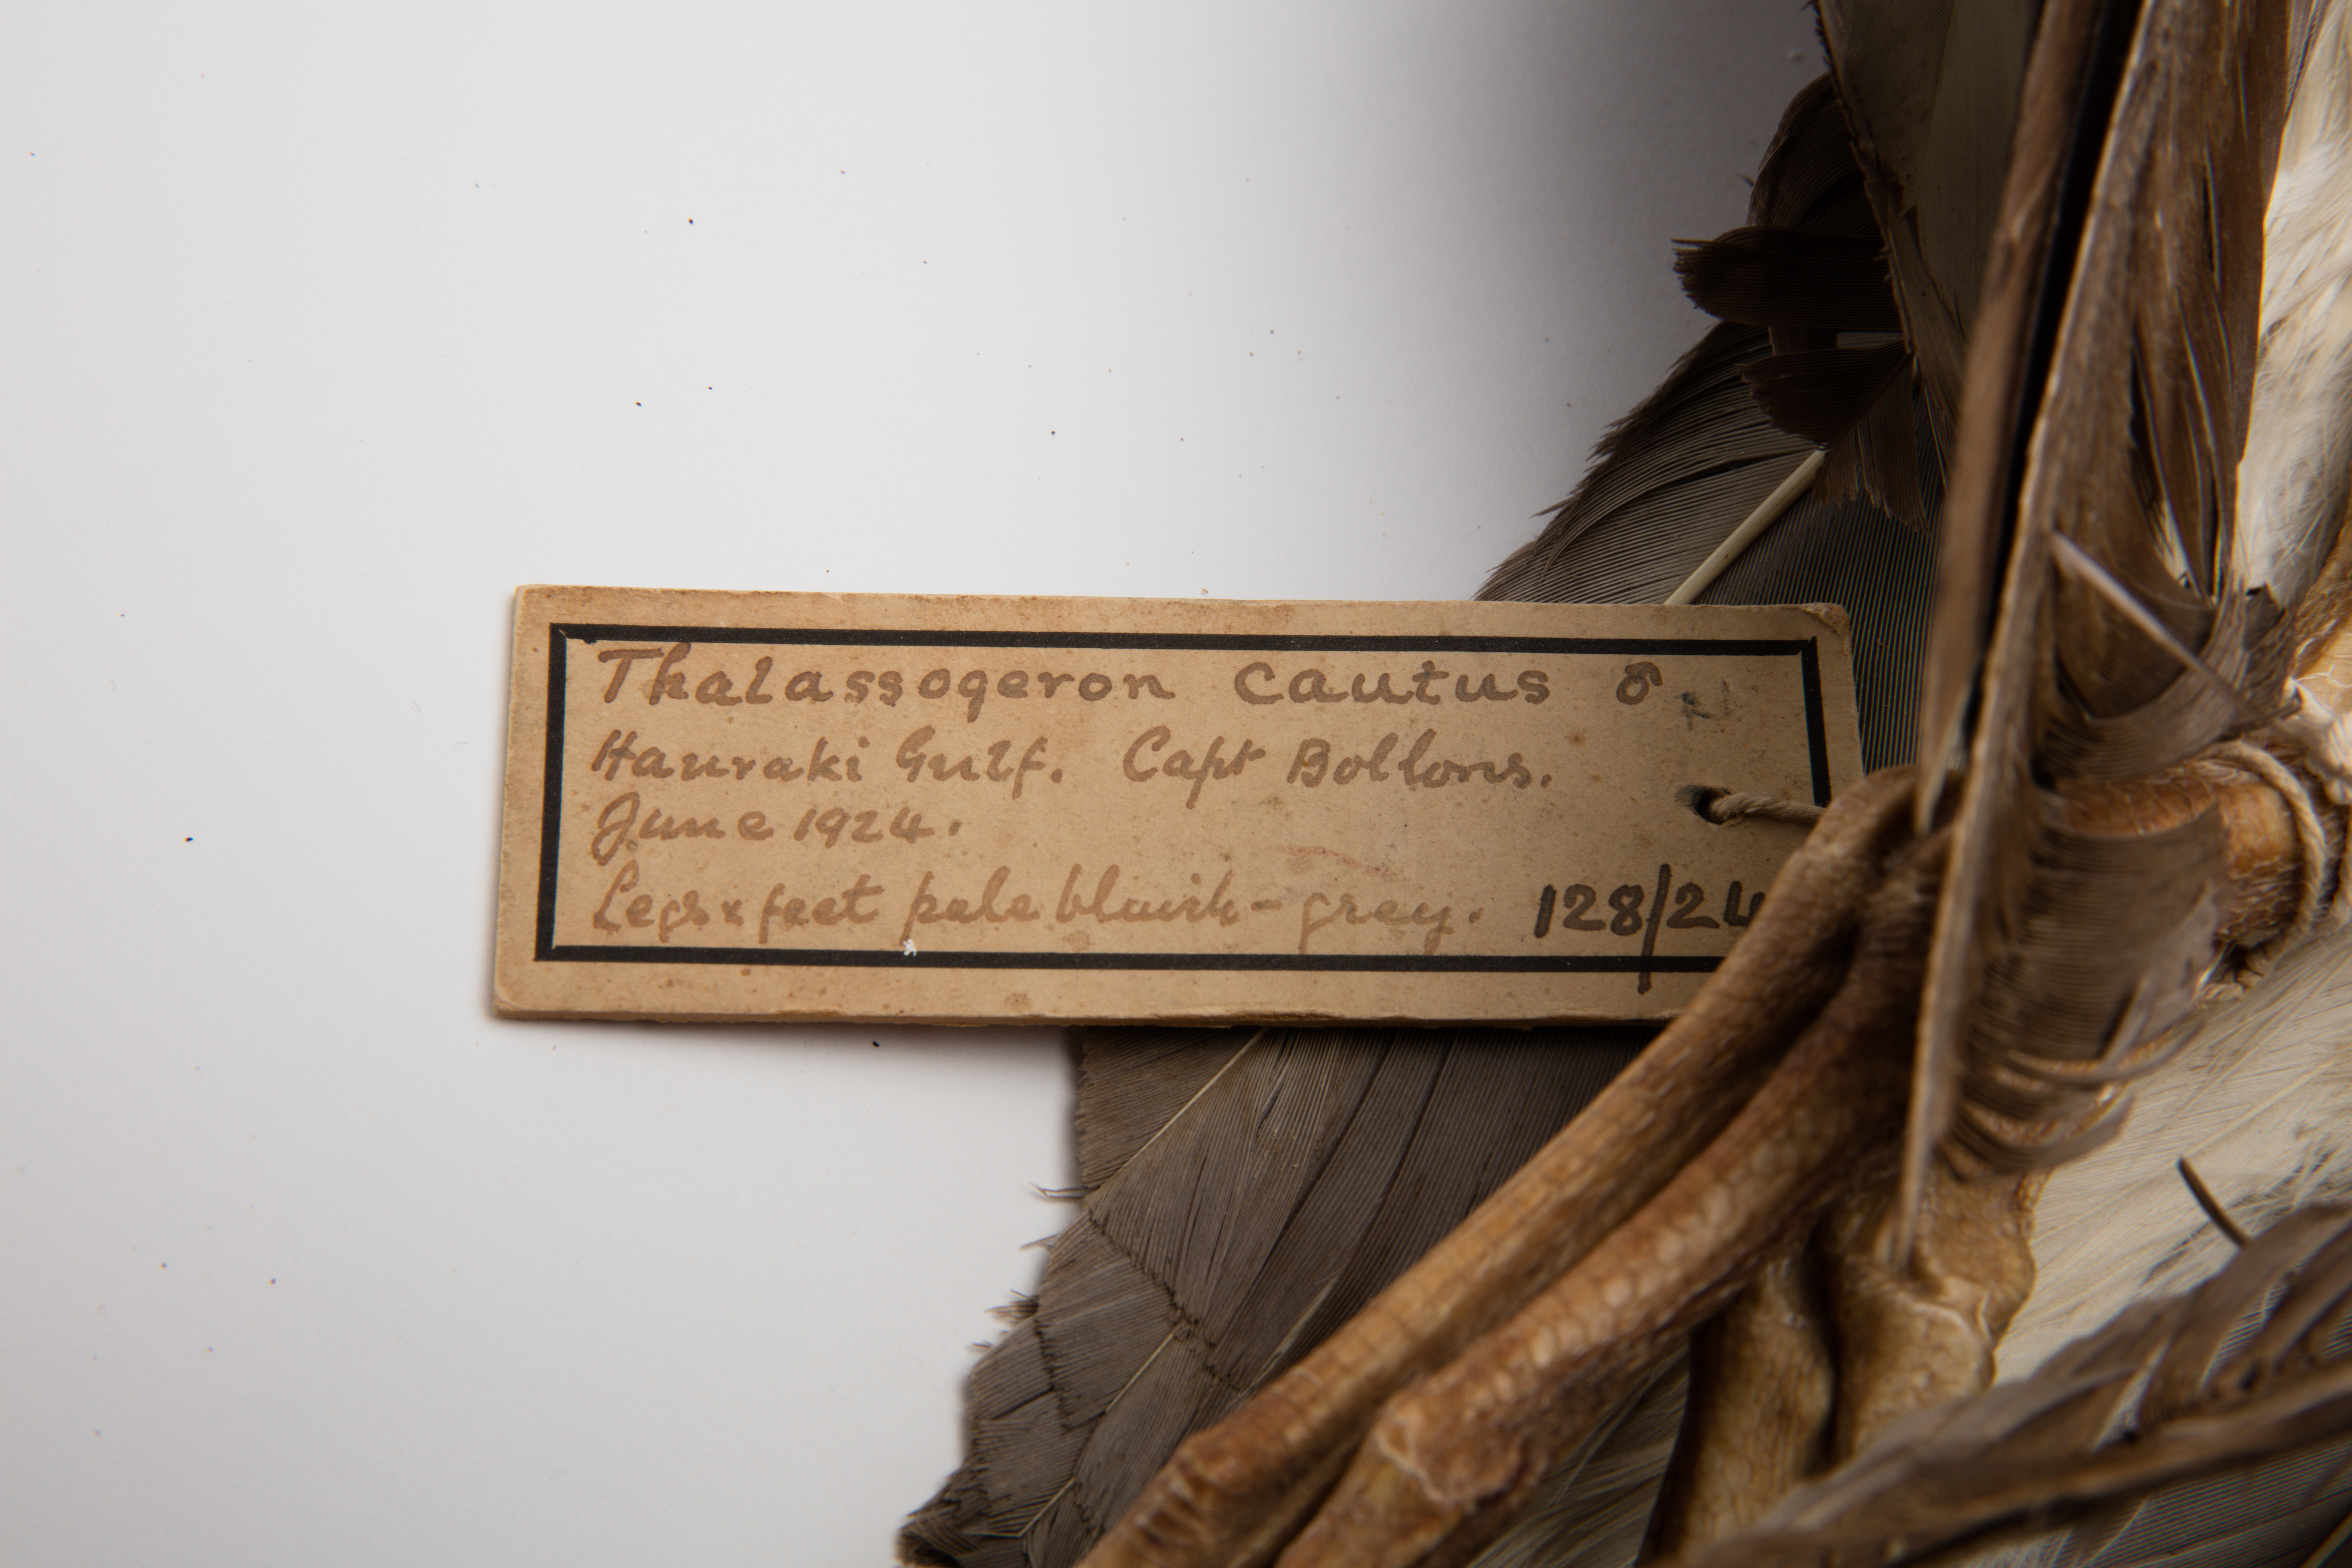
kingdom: Animalia
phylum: Chordata
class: Aves
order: Procellariiformes
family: Diomedeidae
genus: Thalassarche
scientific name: Thalassarche cauta
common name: Shy albatross
